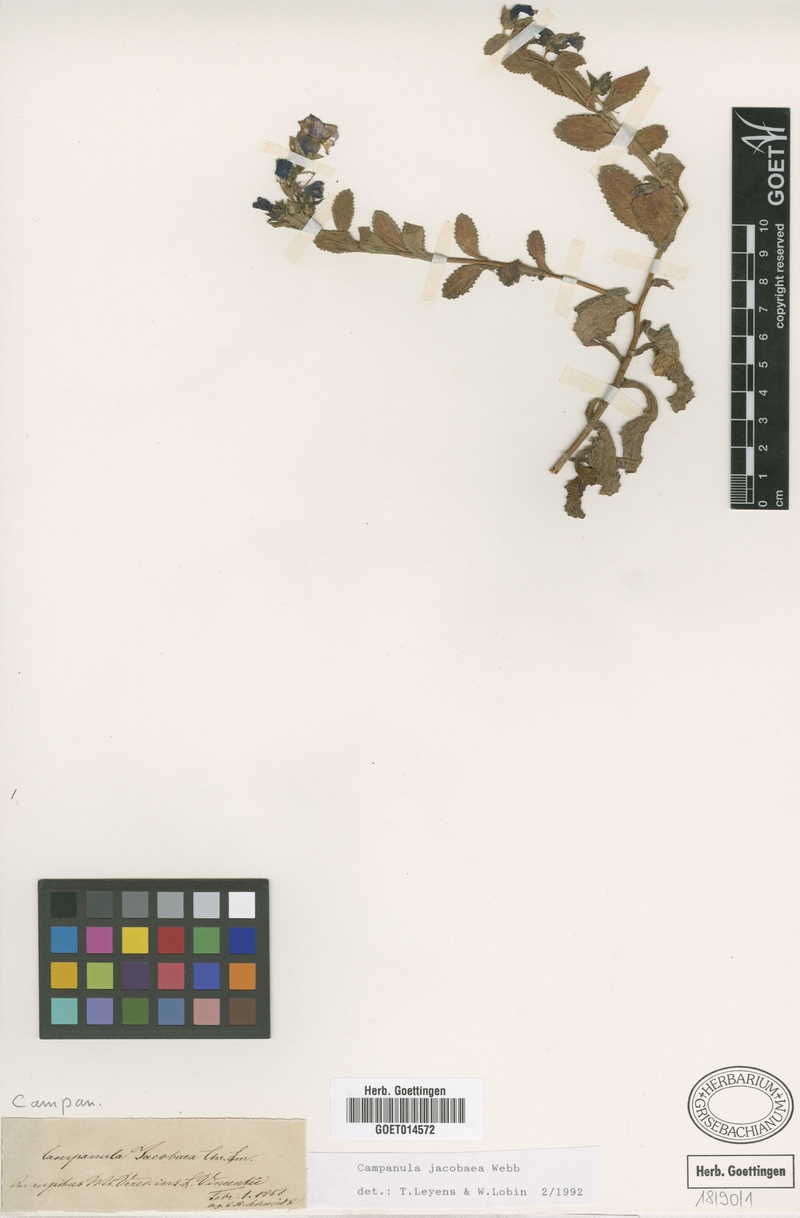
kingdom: Plantae
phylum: Tracheophyta
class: Magnoliopsida
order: Asterales
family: Campanulaceae
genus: Campanula
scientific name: Campanula jacobaea
